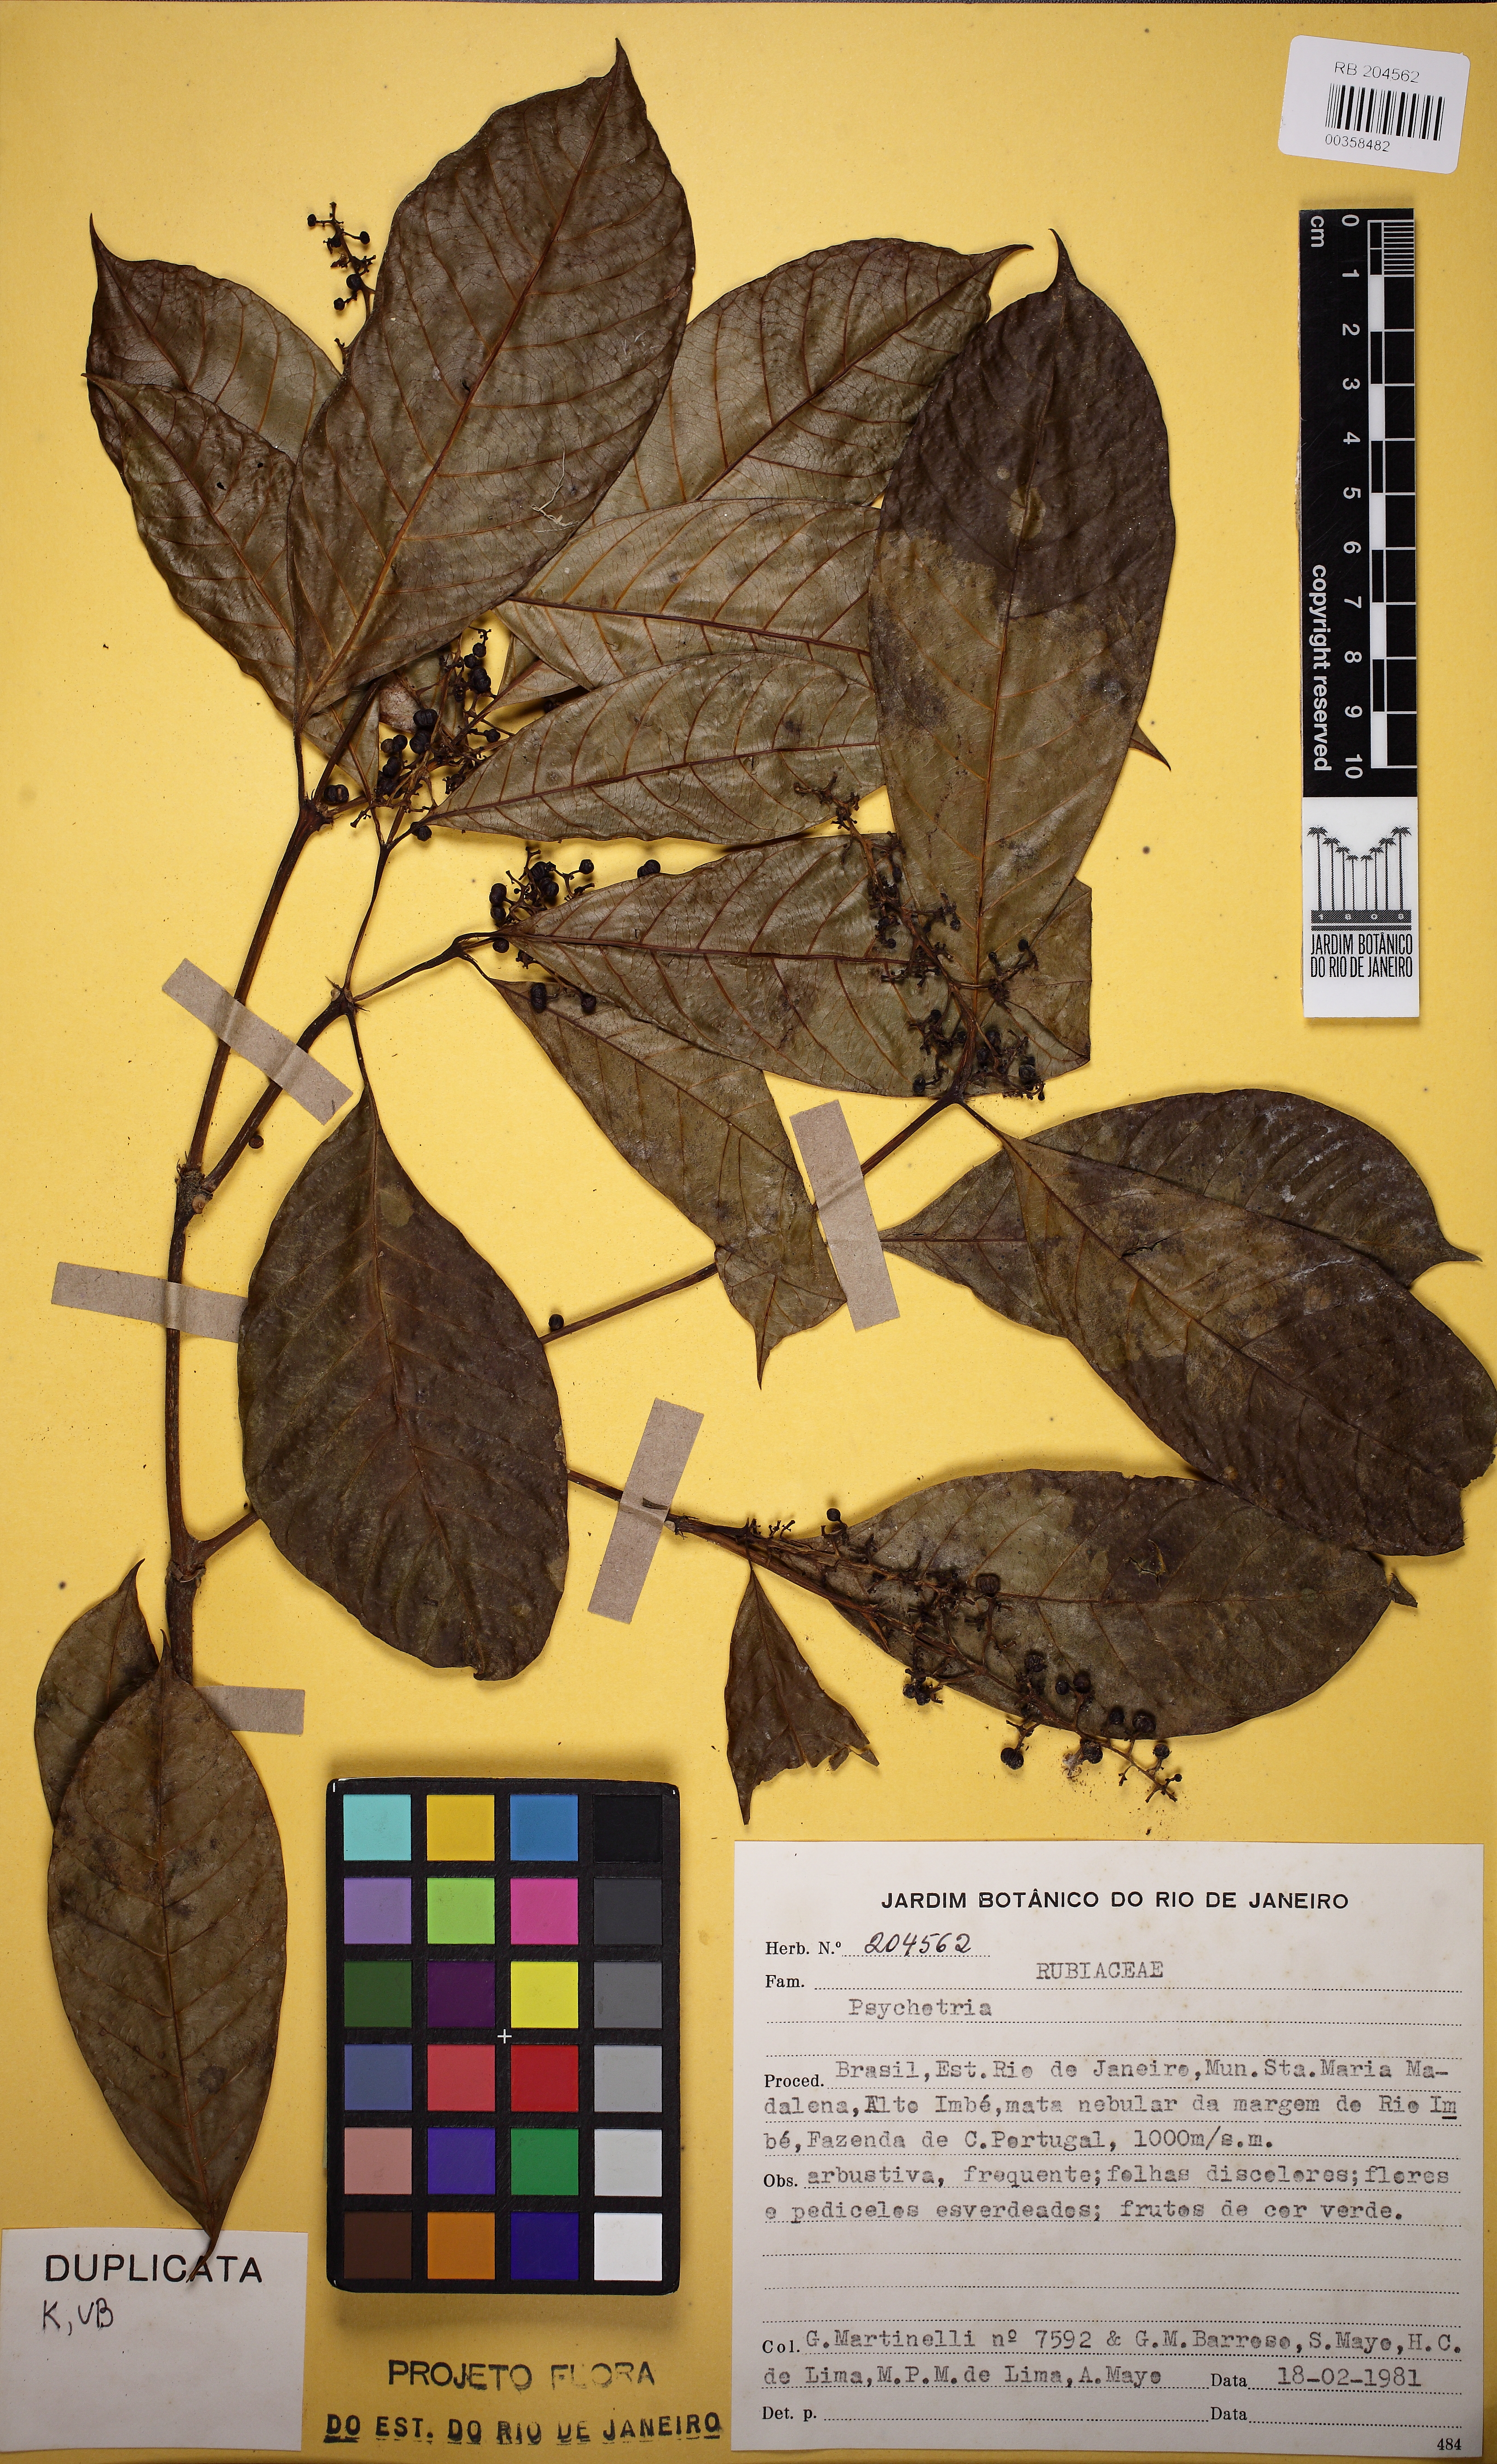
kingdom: Plantae
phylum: Tracheophyta
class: Magnoliopsida
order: Gentianales
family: Rubiaceae
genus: Palicourea
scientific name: Palicourea brevicollis
